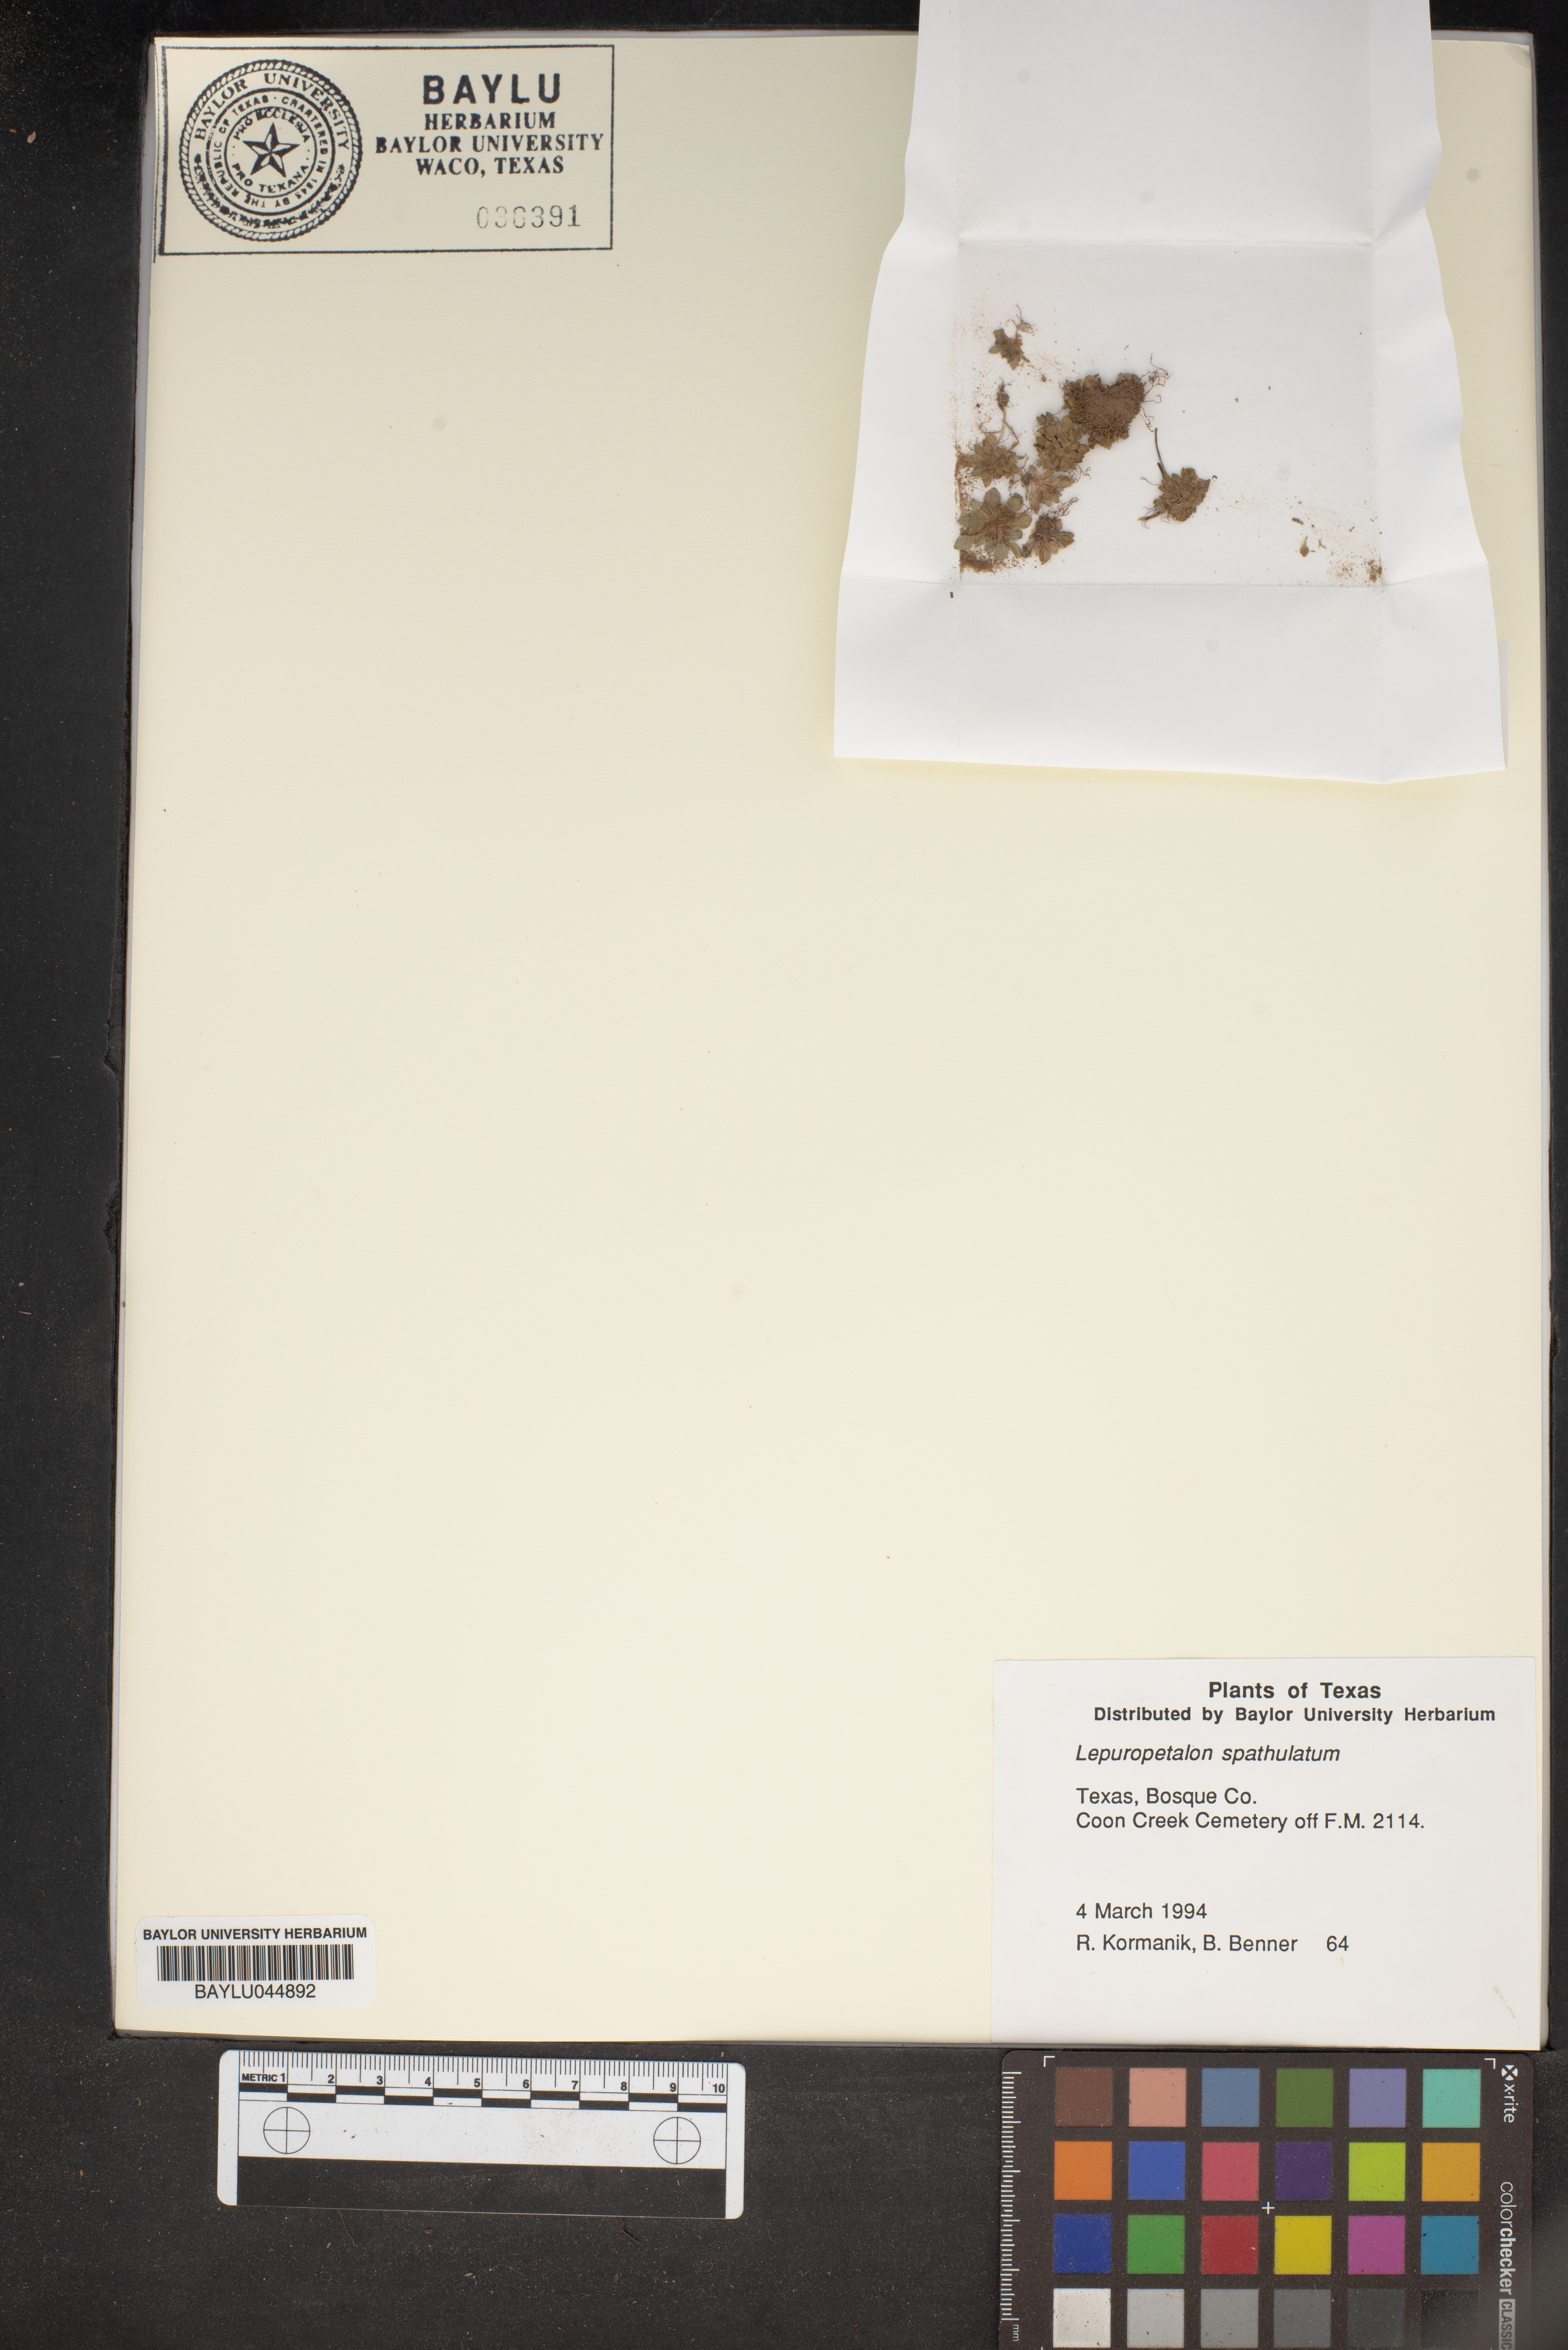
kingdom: Plantae
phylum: Tracheophyta
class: Magnoliopsida
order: Celastrales
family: Parnassiaceae
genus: Lepuropetalon
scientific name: Lepuropetalon spathulatum
